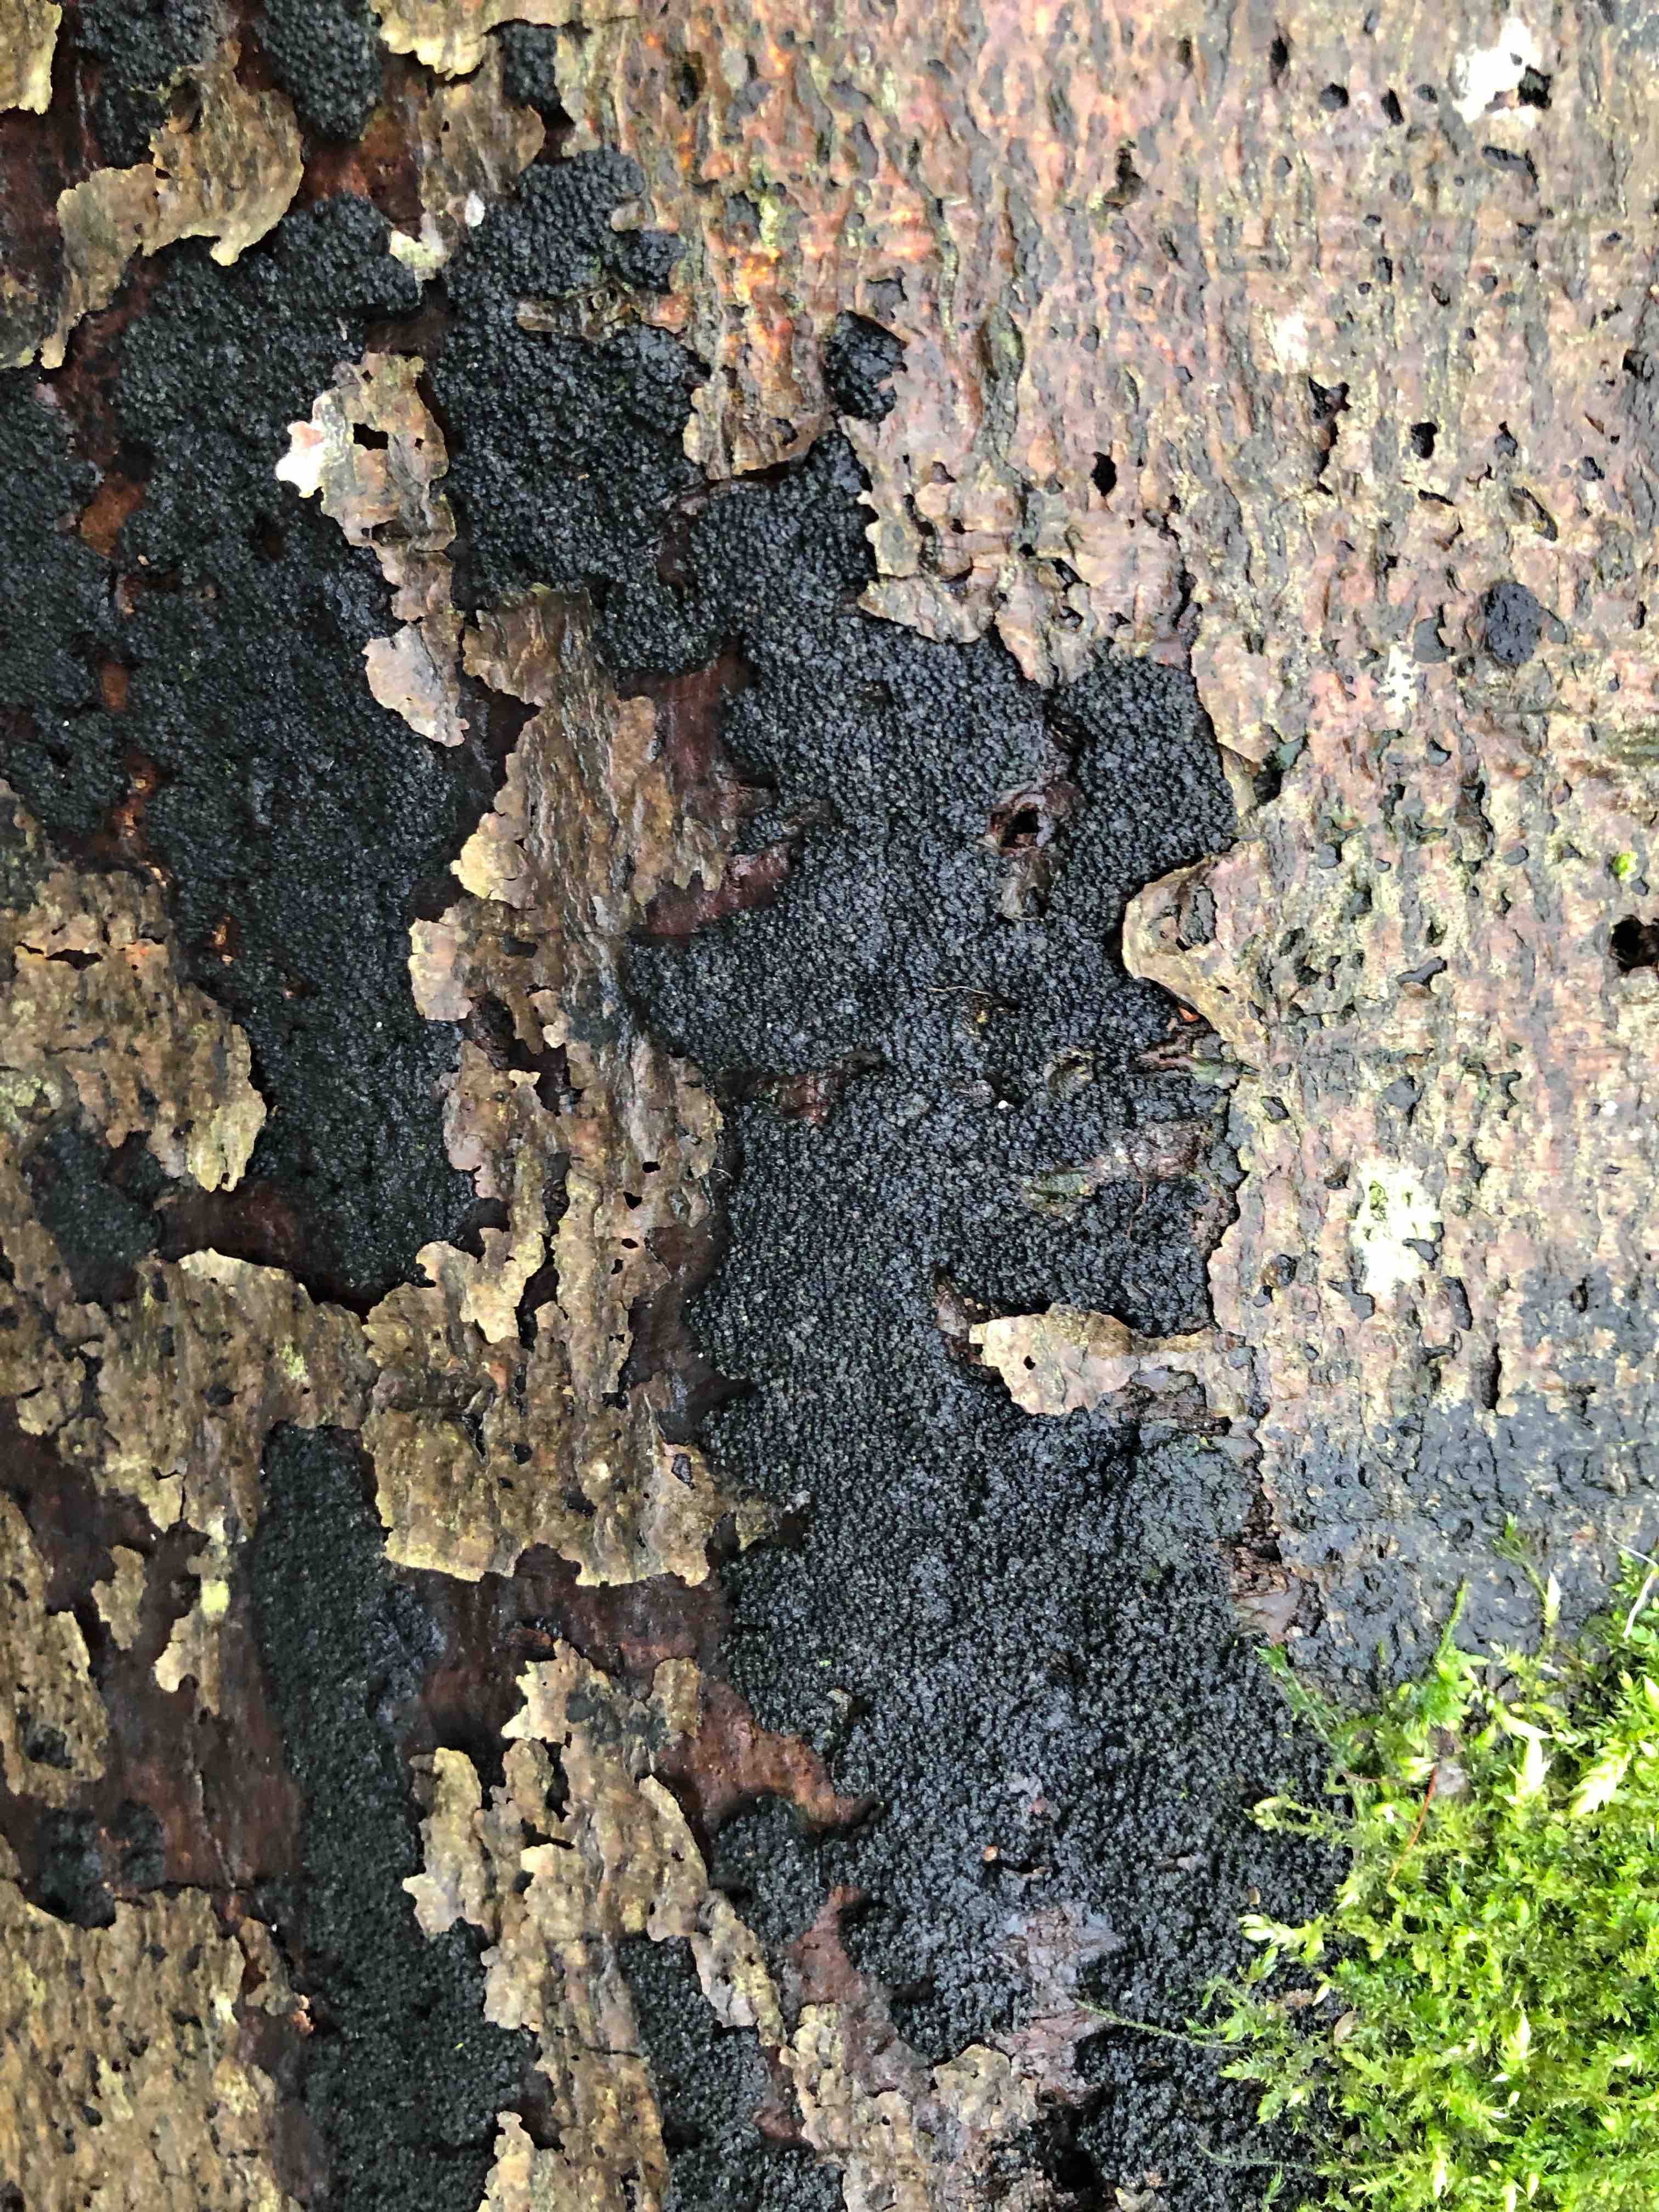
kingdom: Fungi
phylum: Ascomycota
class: Sordariomycetes
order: Xylariales
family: Diatrypaceae
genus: Eutypa
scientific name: Eutypa spinosa
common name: grov kulskorpe
